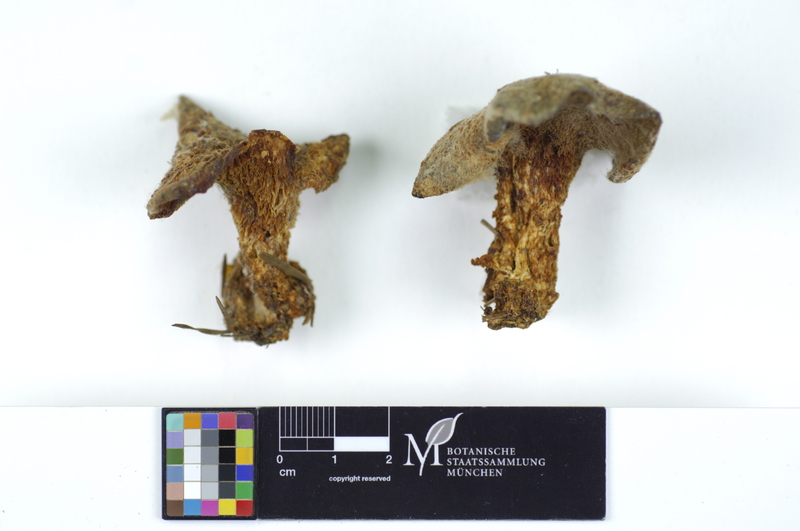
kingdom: Fungi
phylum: Basidiomycota
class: Agaricomycetes
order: Polyporales
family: Fomitopsidaceae
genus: Climacocystis
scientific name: Climacocystis borealis
